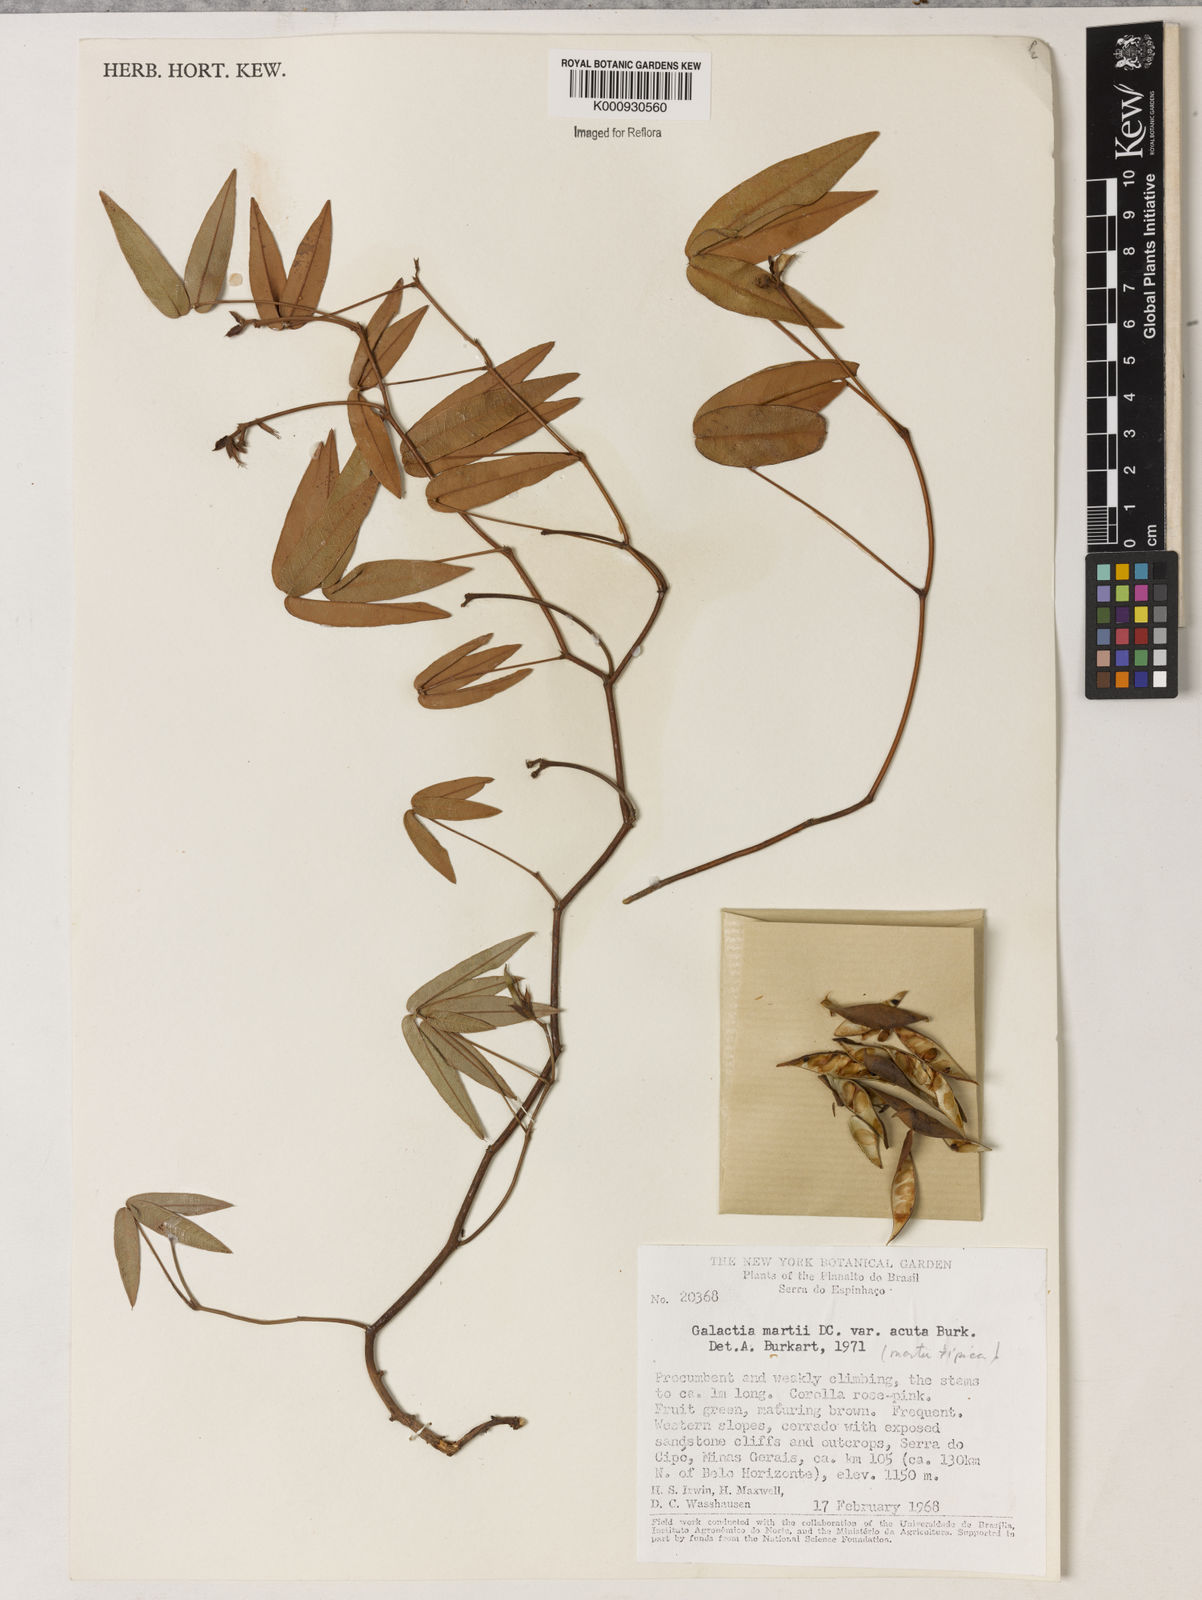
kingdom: Plantae
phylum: Tracheophyta
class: Magnoliopsida
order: Fabales
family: Fabaceae
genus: Betencourtia
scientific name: Betencourtia martii
